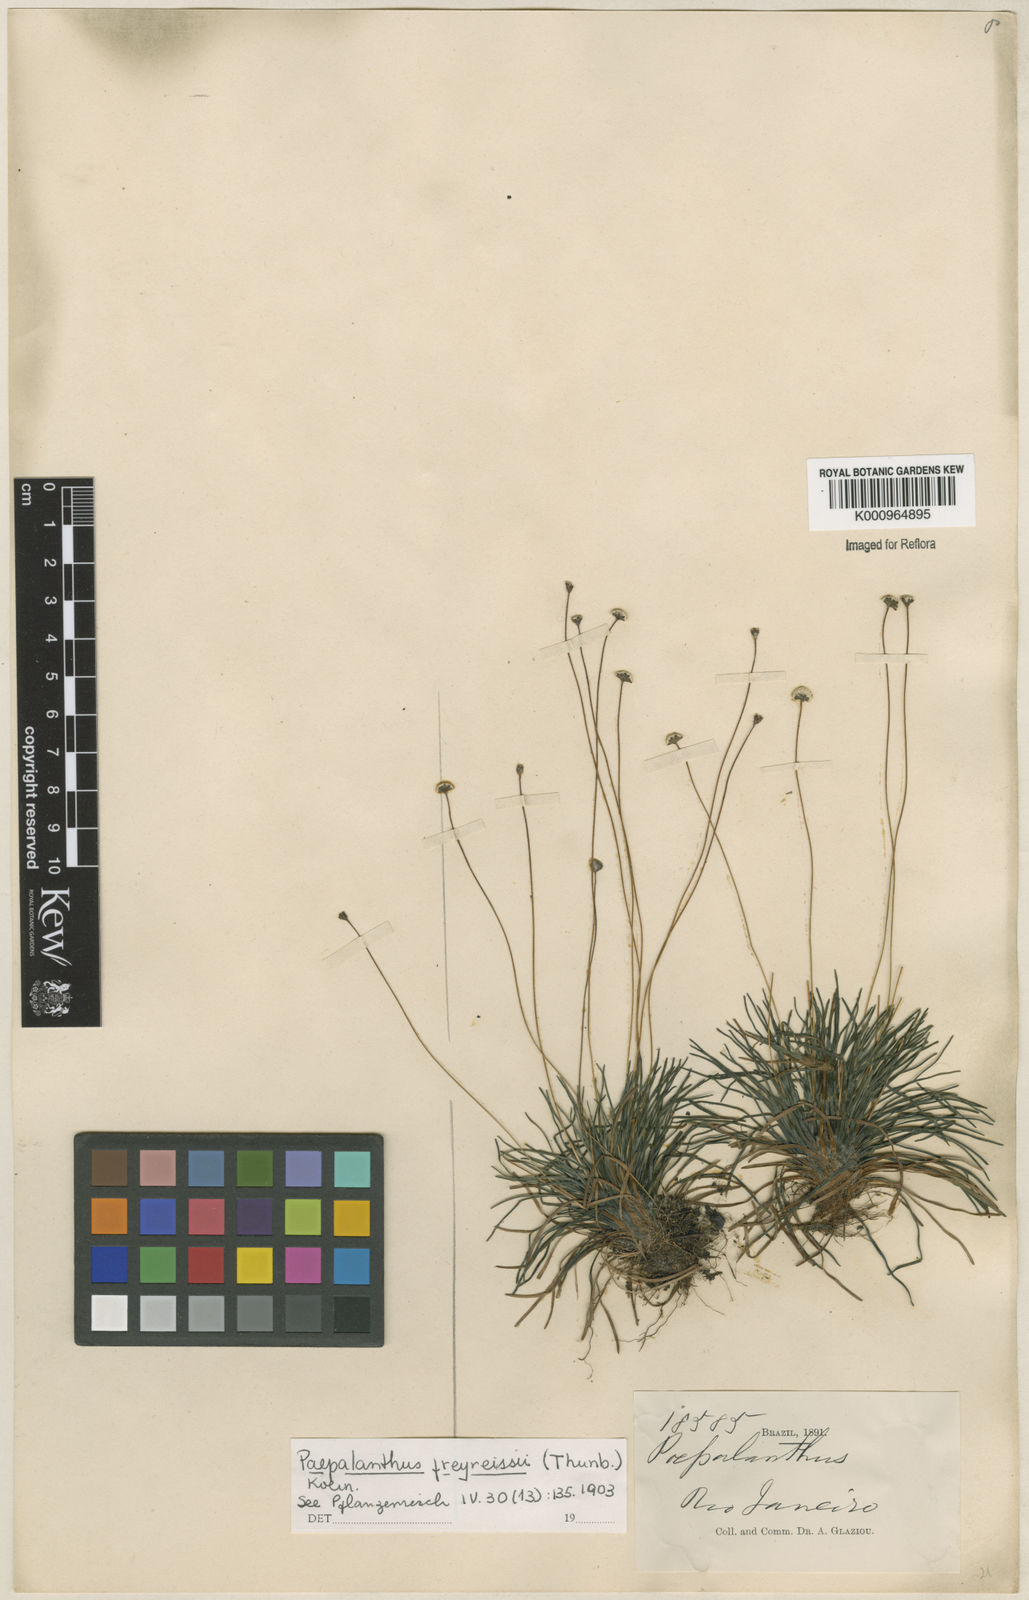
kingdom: Plantae
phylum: Tracheophyta
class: Liliopsida
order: Poales
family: Eriocaulaceae
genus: Paepalanthus
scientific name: Paepalanthus
